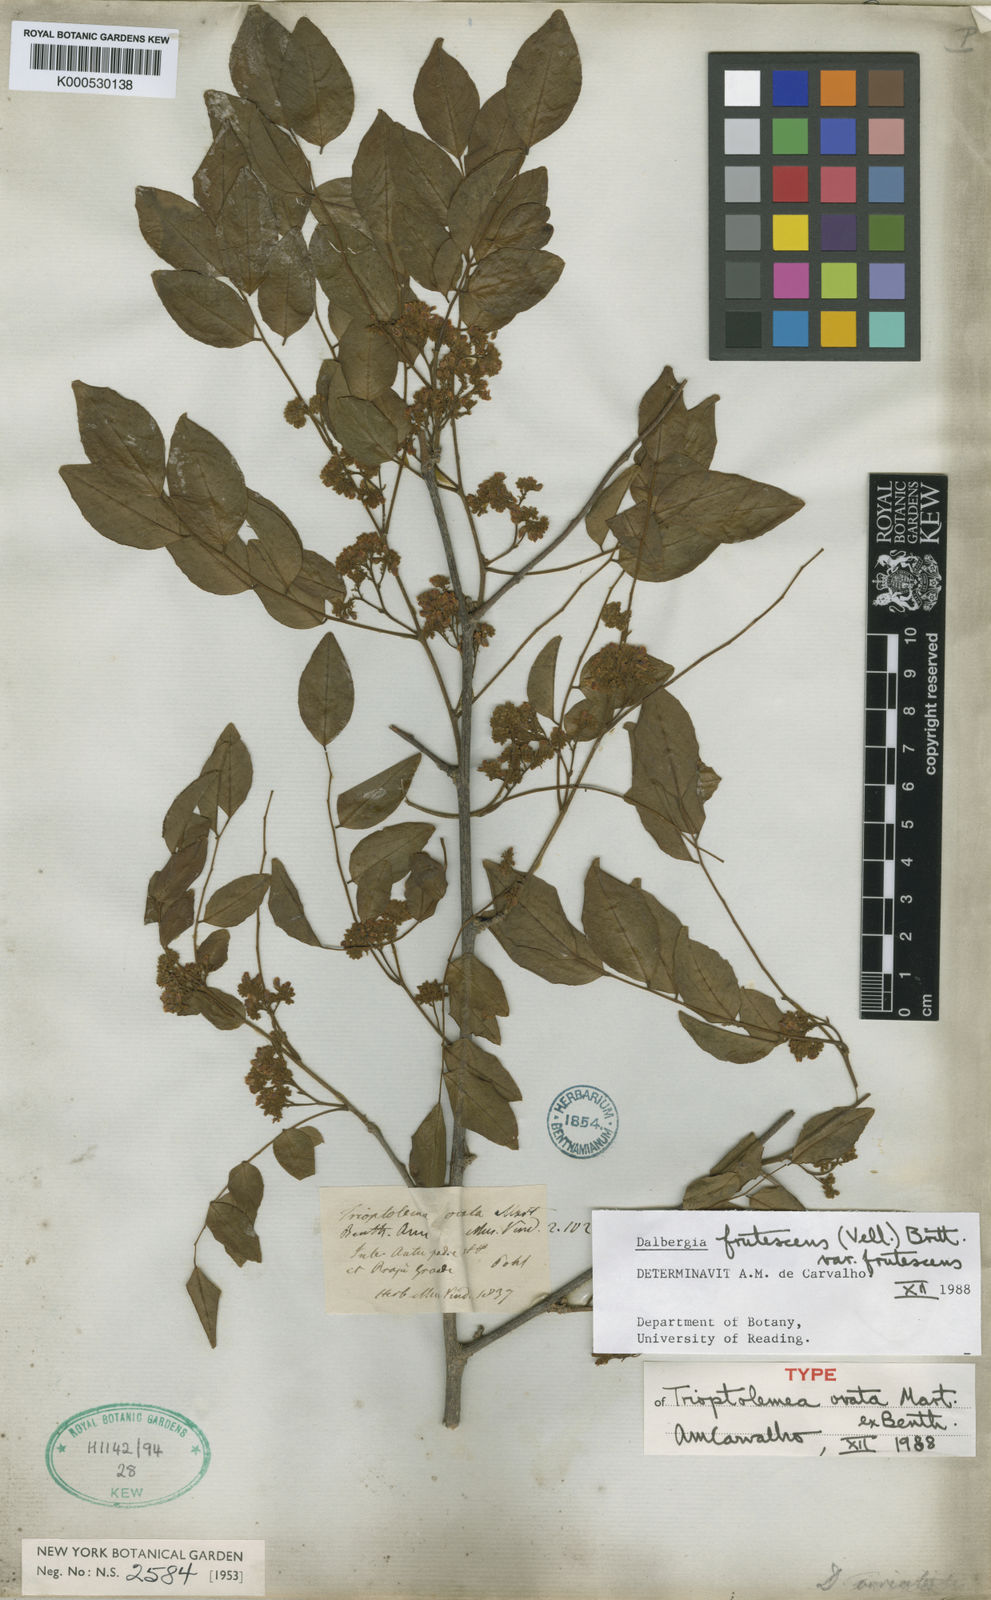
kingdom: Plantae
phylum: Tracheophyta
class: Magnoliopsida
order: Fabales
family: Fabaceae
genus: Dalbergia
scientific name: Dalbergia frutescens
